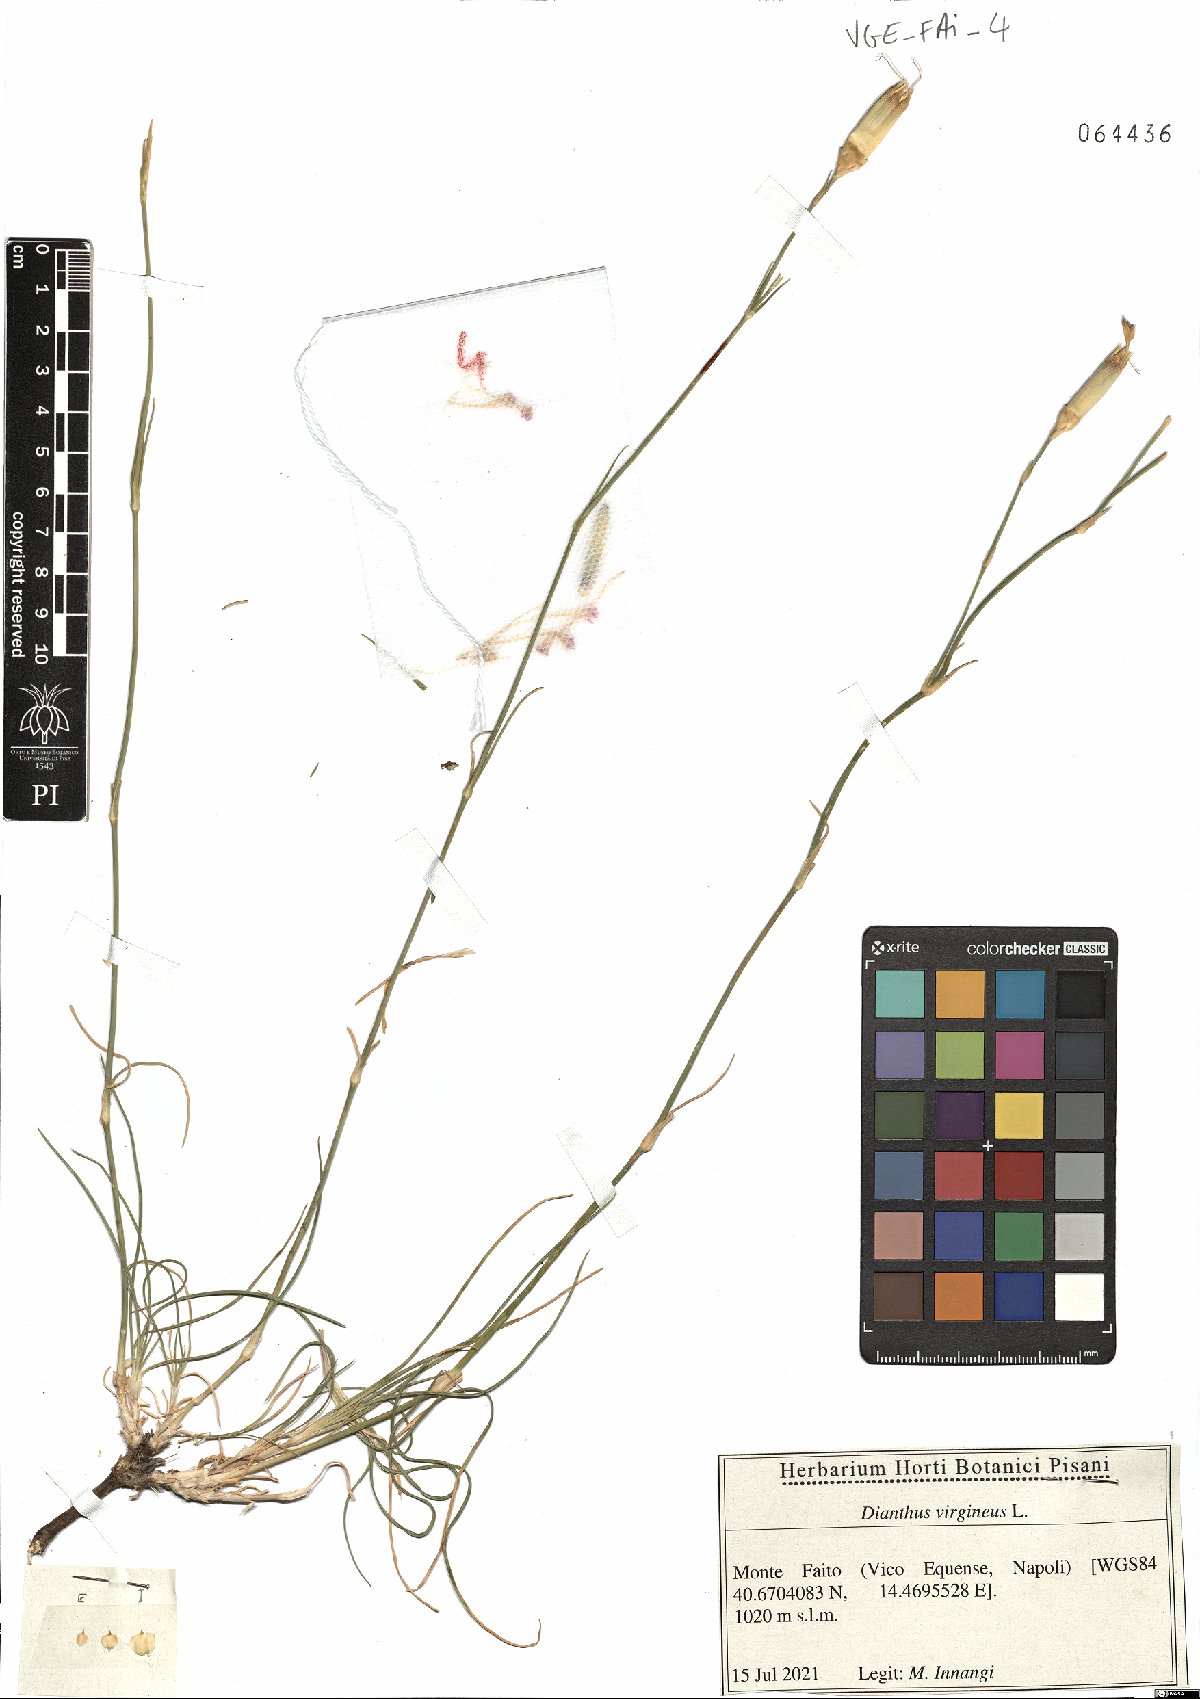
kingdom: Plantae
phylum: Tracheophyta
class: Magnoliopsida
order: Caryophyllales
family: Caryophyllaceae
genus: Dianthus
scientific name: Dianthus virgineus
